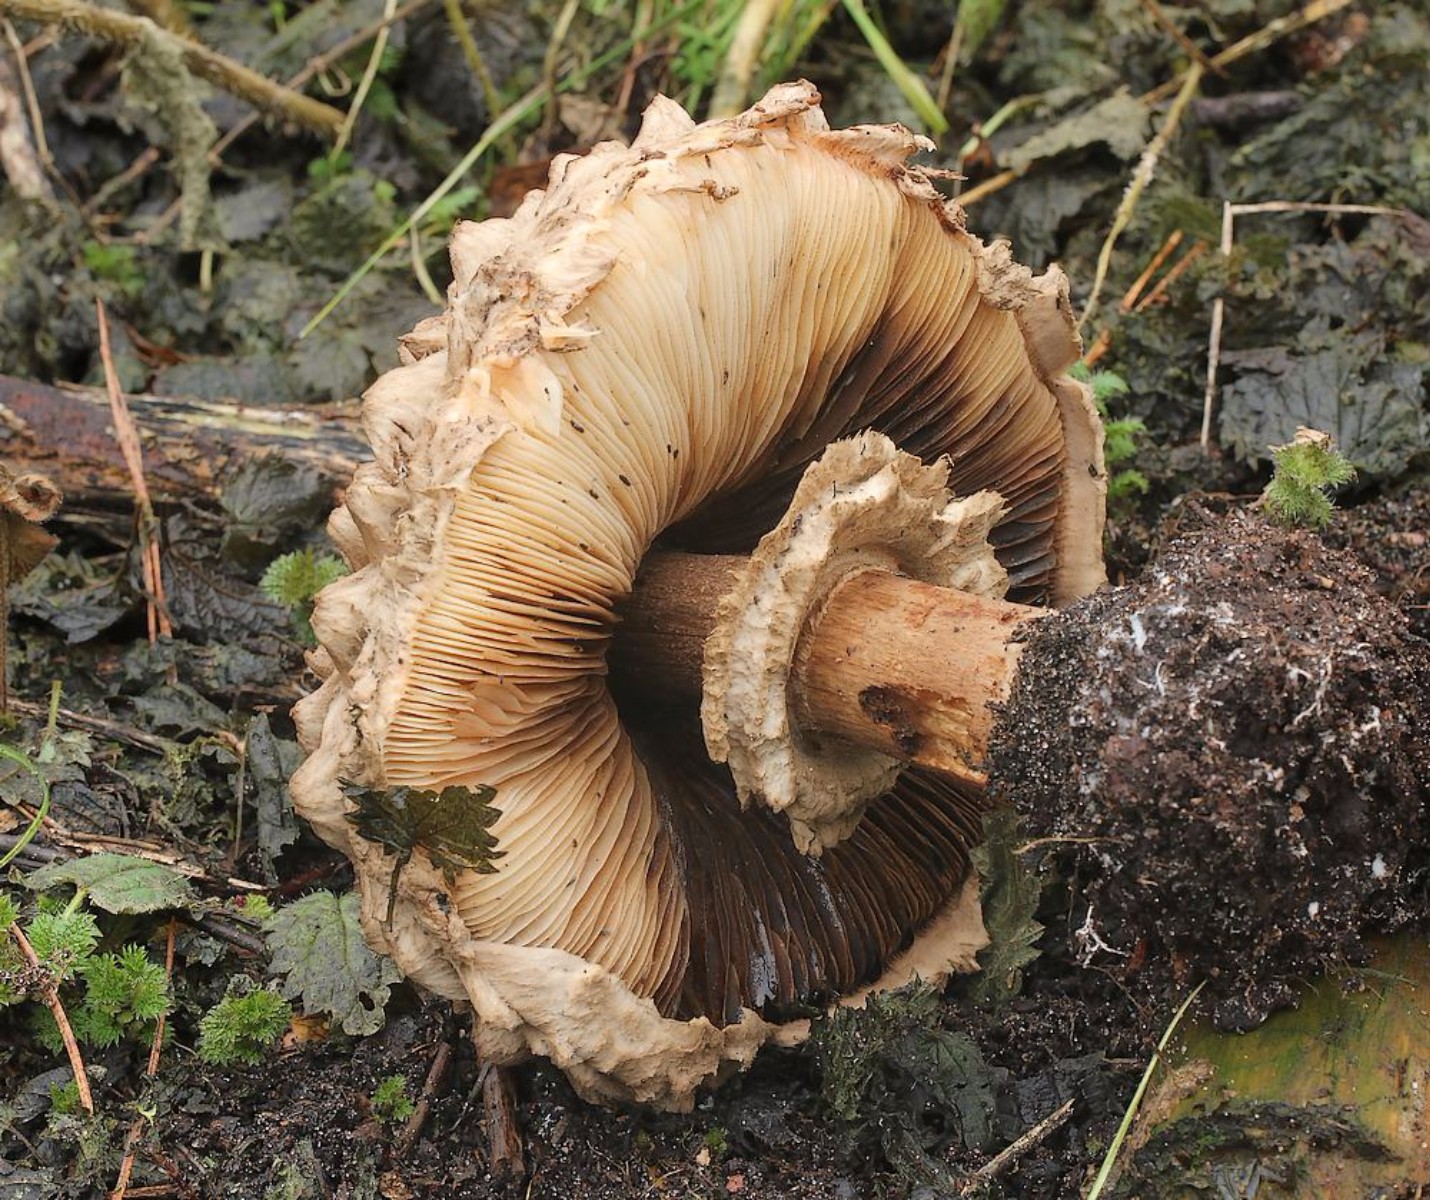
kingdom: Fungi
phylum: Basidiomycota
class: Agaricomycetes
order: Agaricales
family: Agaricaceae
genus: Chlorophyllum
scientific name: Chlorophyllum olivieri
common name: almindelig rabarberhat
